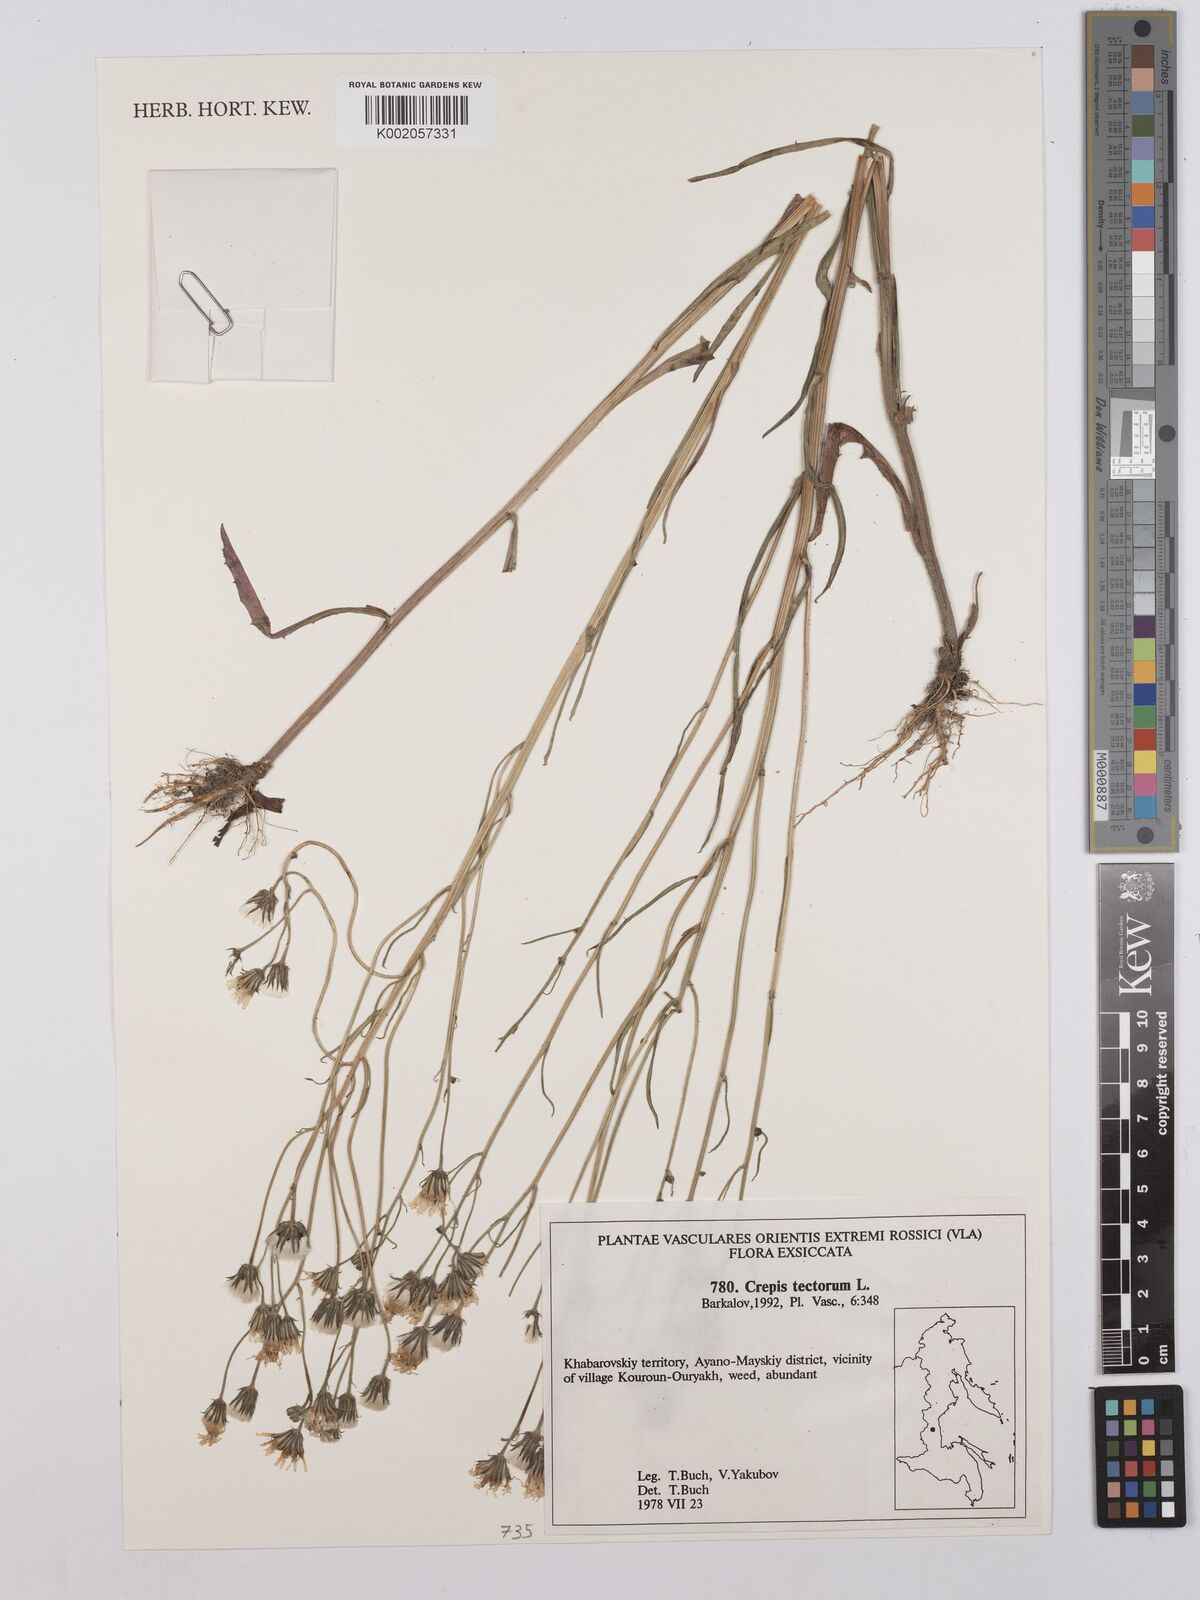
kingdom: Plantae
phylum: Tracheophyta
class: Magnoliopsida
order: Asterales
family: Asteraceae
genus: Crepis
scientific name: Crepis tectorum
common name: Narrow-leaved hawk's-beard
